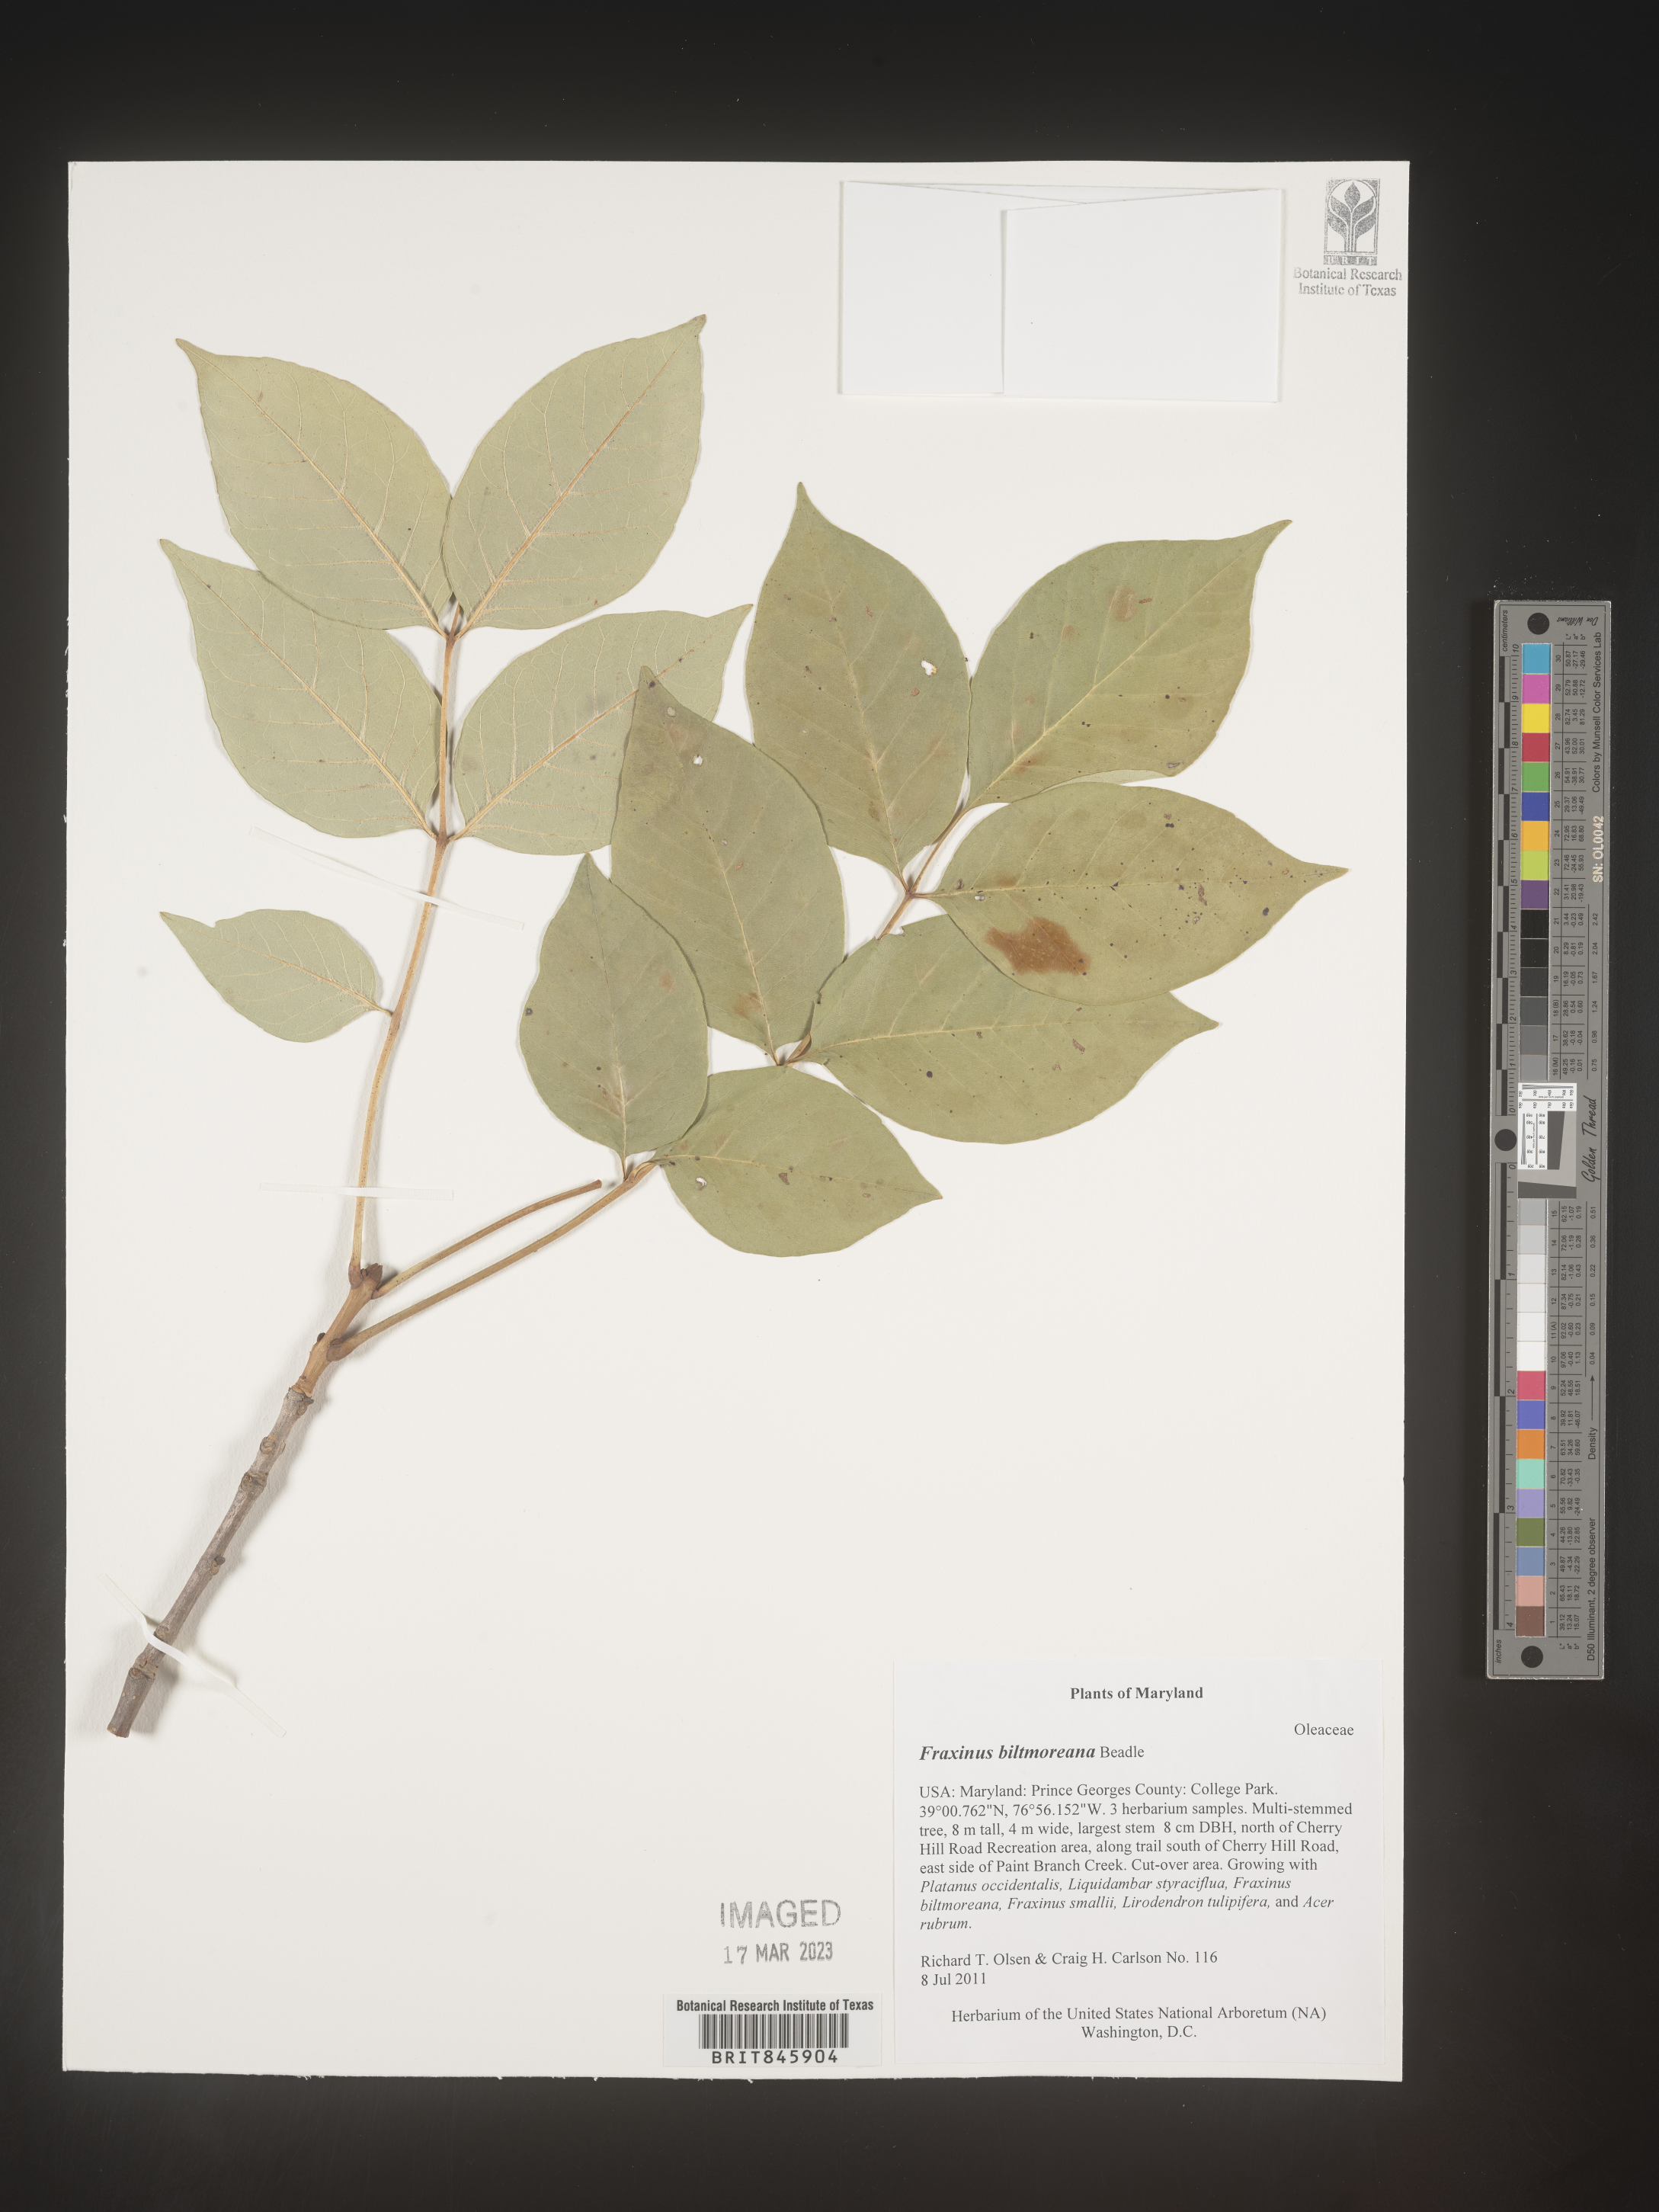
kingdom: Plantae
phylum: Tracheophyta
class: Magnoliopsida
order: Lamiales
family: Oleaceae
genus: Fraxinus
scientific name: Fraxinus americana
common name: White ash
